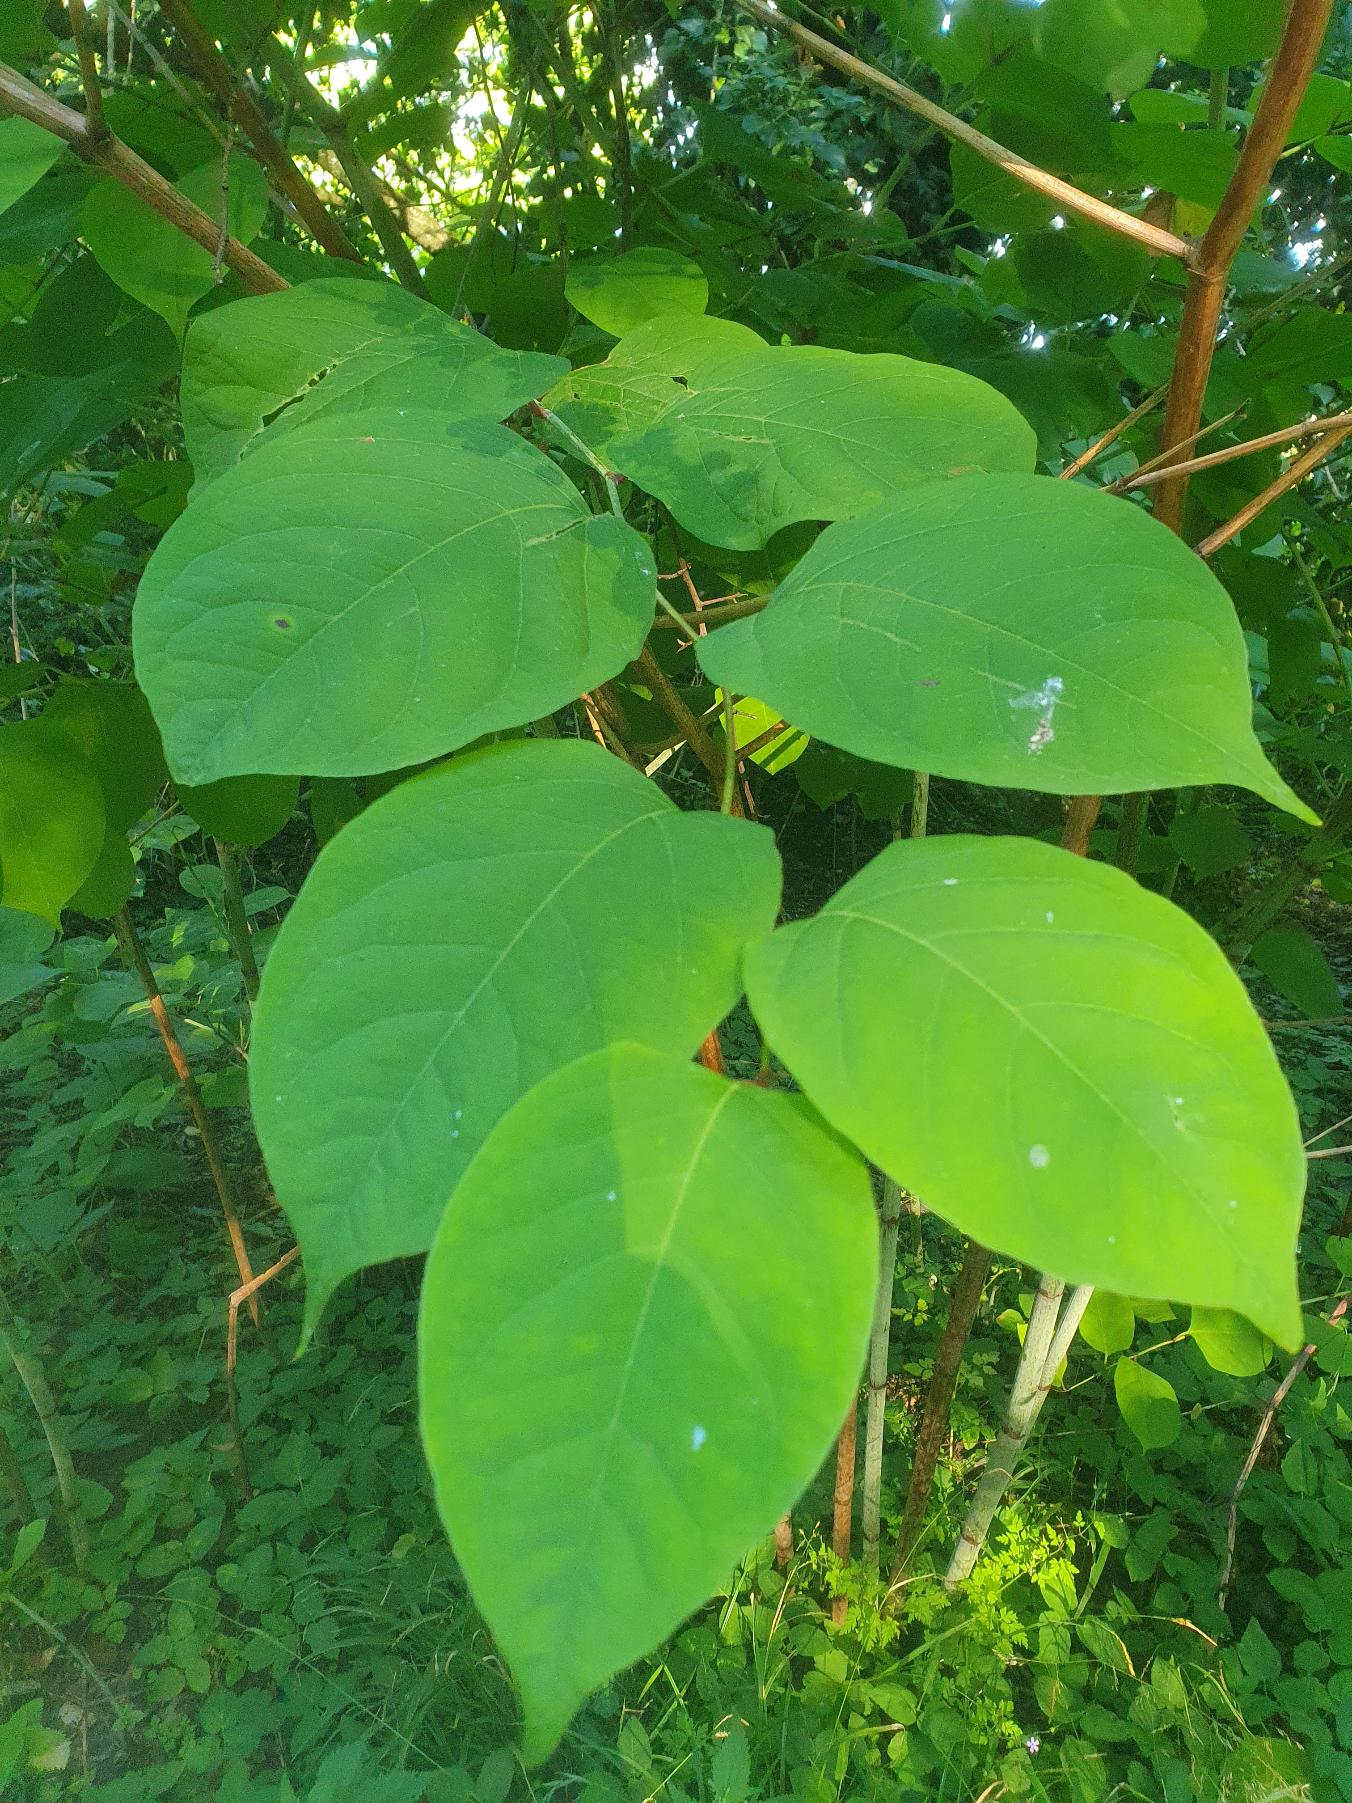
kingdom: Plantae
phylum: Tracheophyta
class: Magnoliopsida
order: Caryophyllales
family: Polygonaceae
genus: Reynoutria
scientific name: Reynoutria japonica
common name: Japan-pileurt
